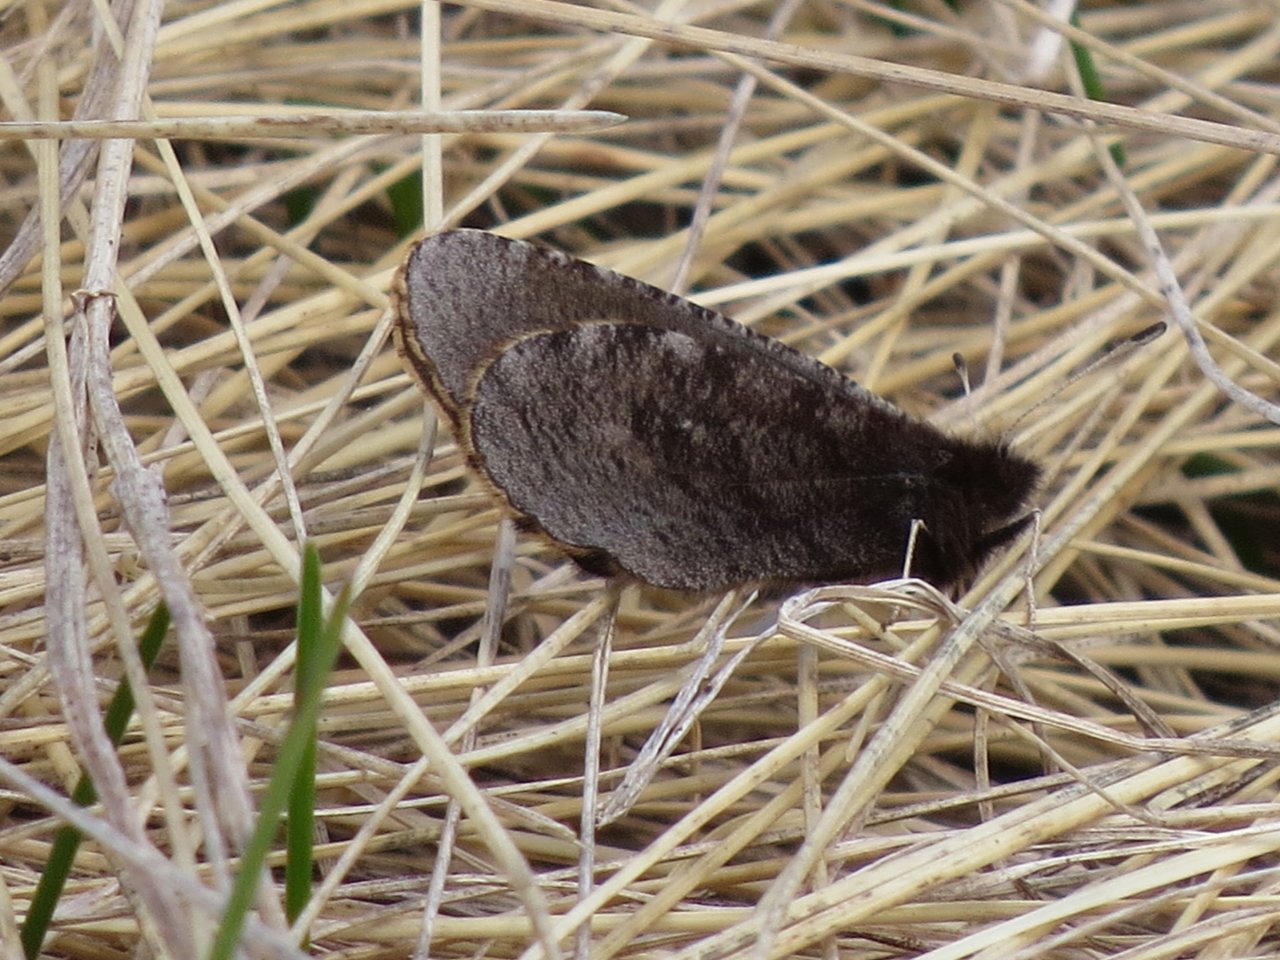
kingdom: Animalia
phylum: Arthropoda
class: Insecta
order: Lepidoptera
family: Nymphalidae
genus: Erebia
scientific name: Erebia discoidalis
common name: Red-disked Alpine
